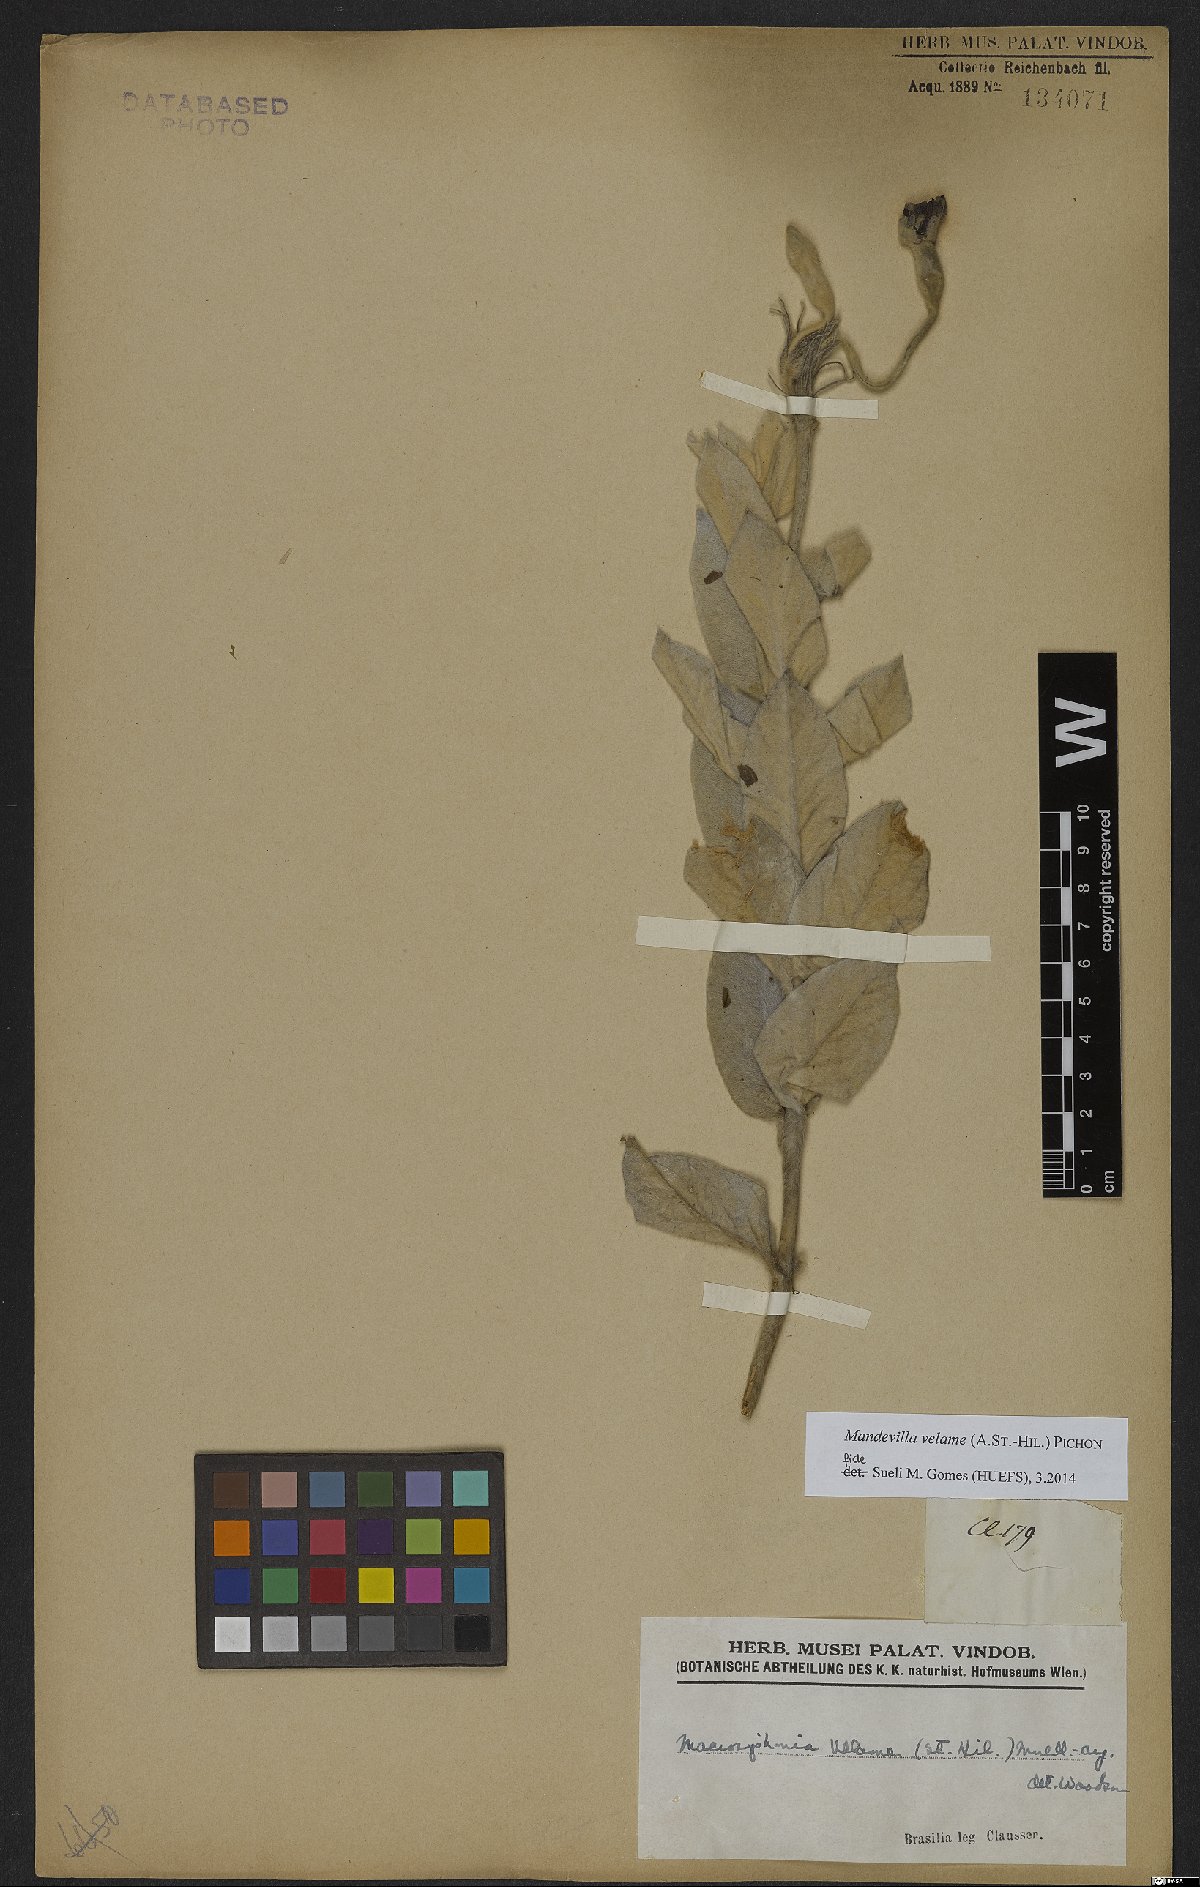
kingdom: Plantae
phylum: Tracheophyta
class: Magnoliopsida
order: Gentianales
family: Apocynaceae
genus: Mandevilla
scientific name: Mandevilla velame
